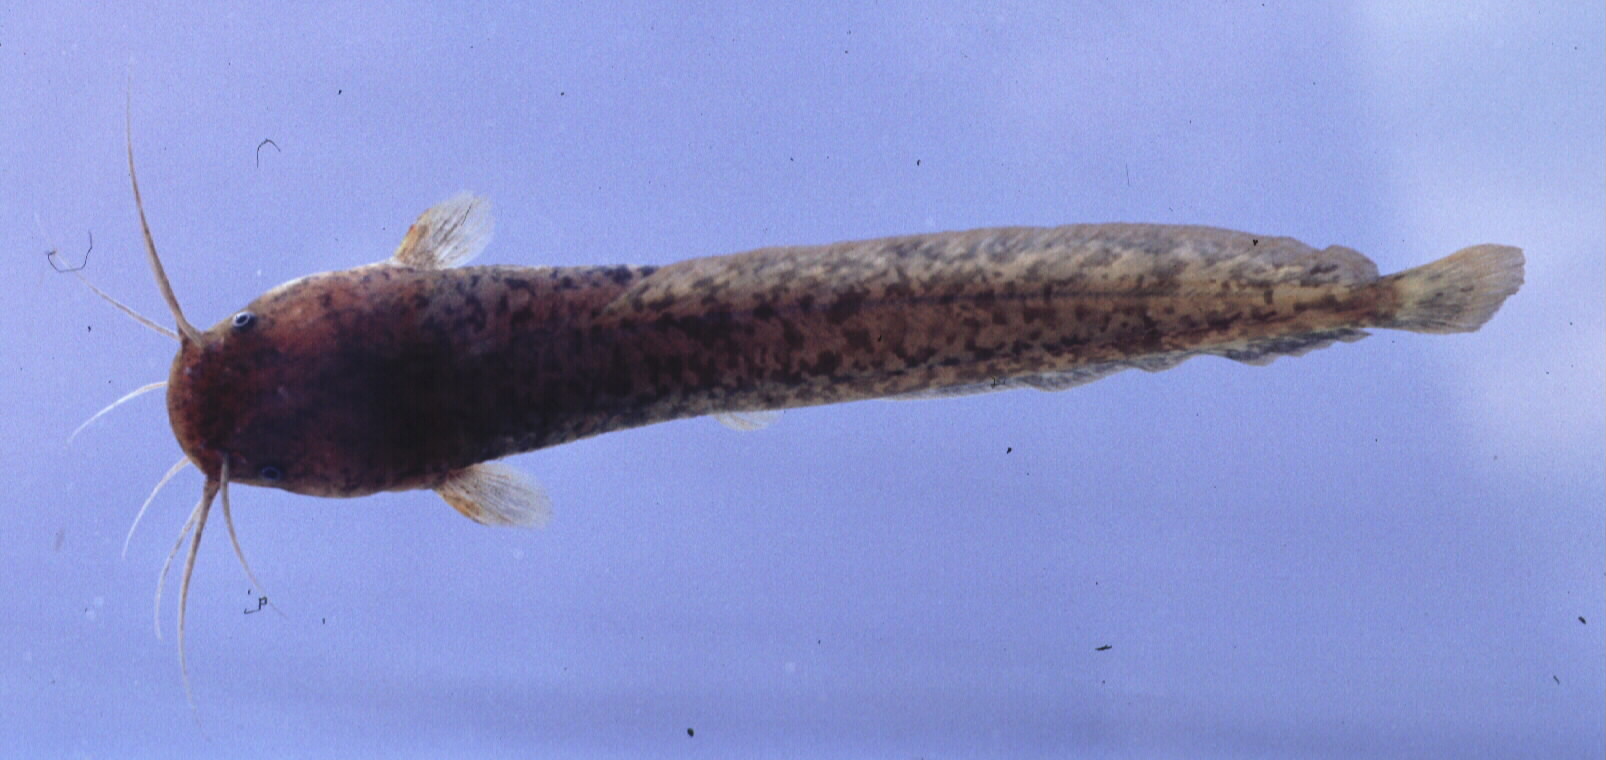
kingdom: Animalia
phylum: Chordata
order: Siluriformes
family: Clariidae
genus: Clarias
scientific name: Clarias liocephalus
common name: Smooth-head catfish
